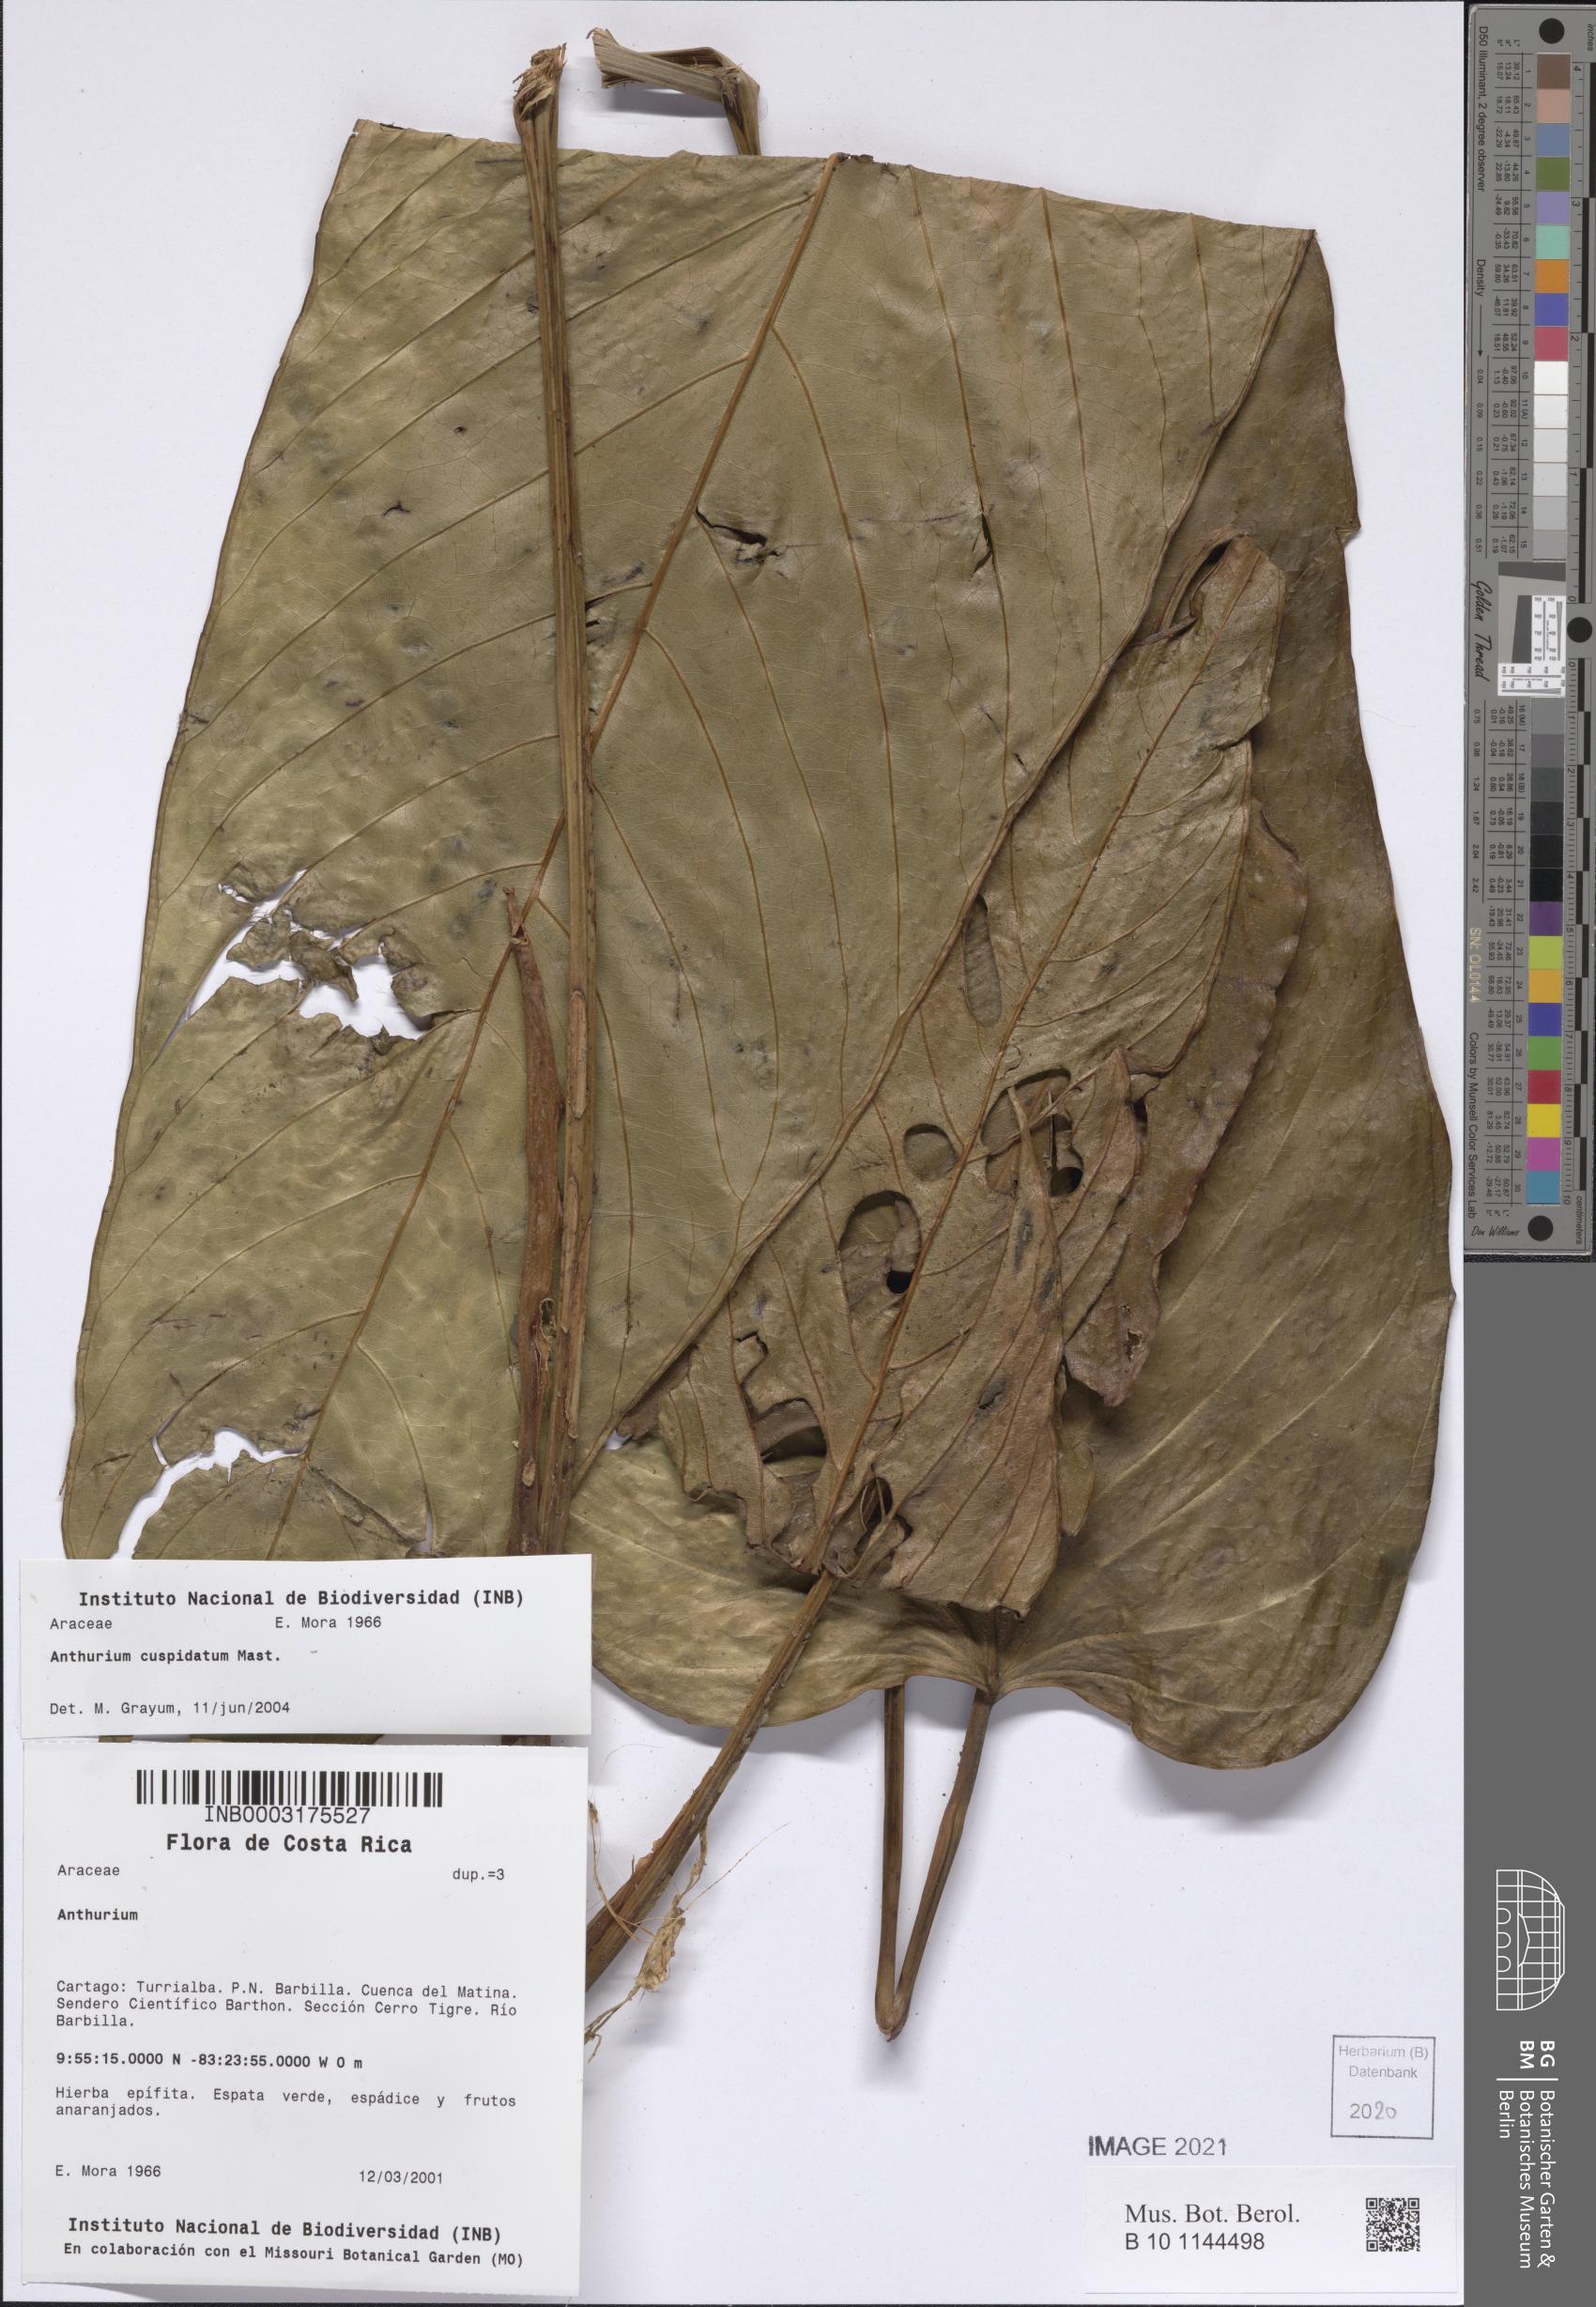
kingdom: Plantae
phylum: Tracheophyta
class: Liliopsida
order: Alismatales
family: Araceae
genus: Anthurium
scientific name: Anthurium cuspidatum
